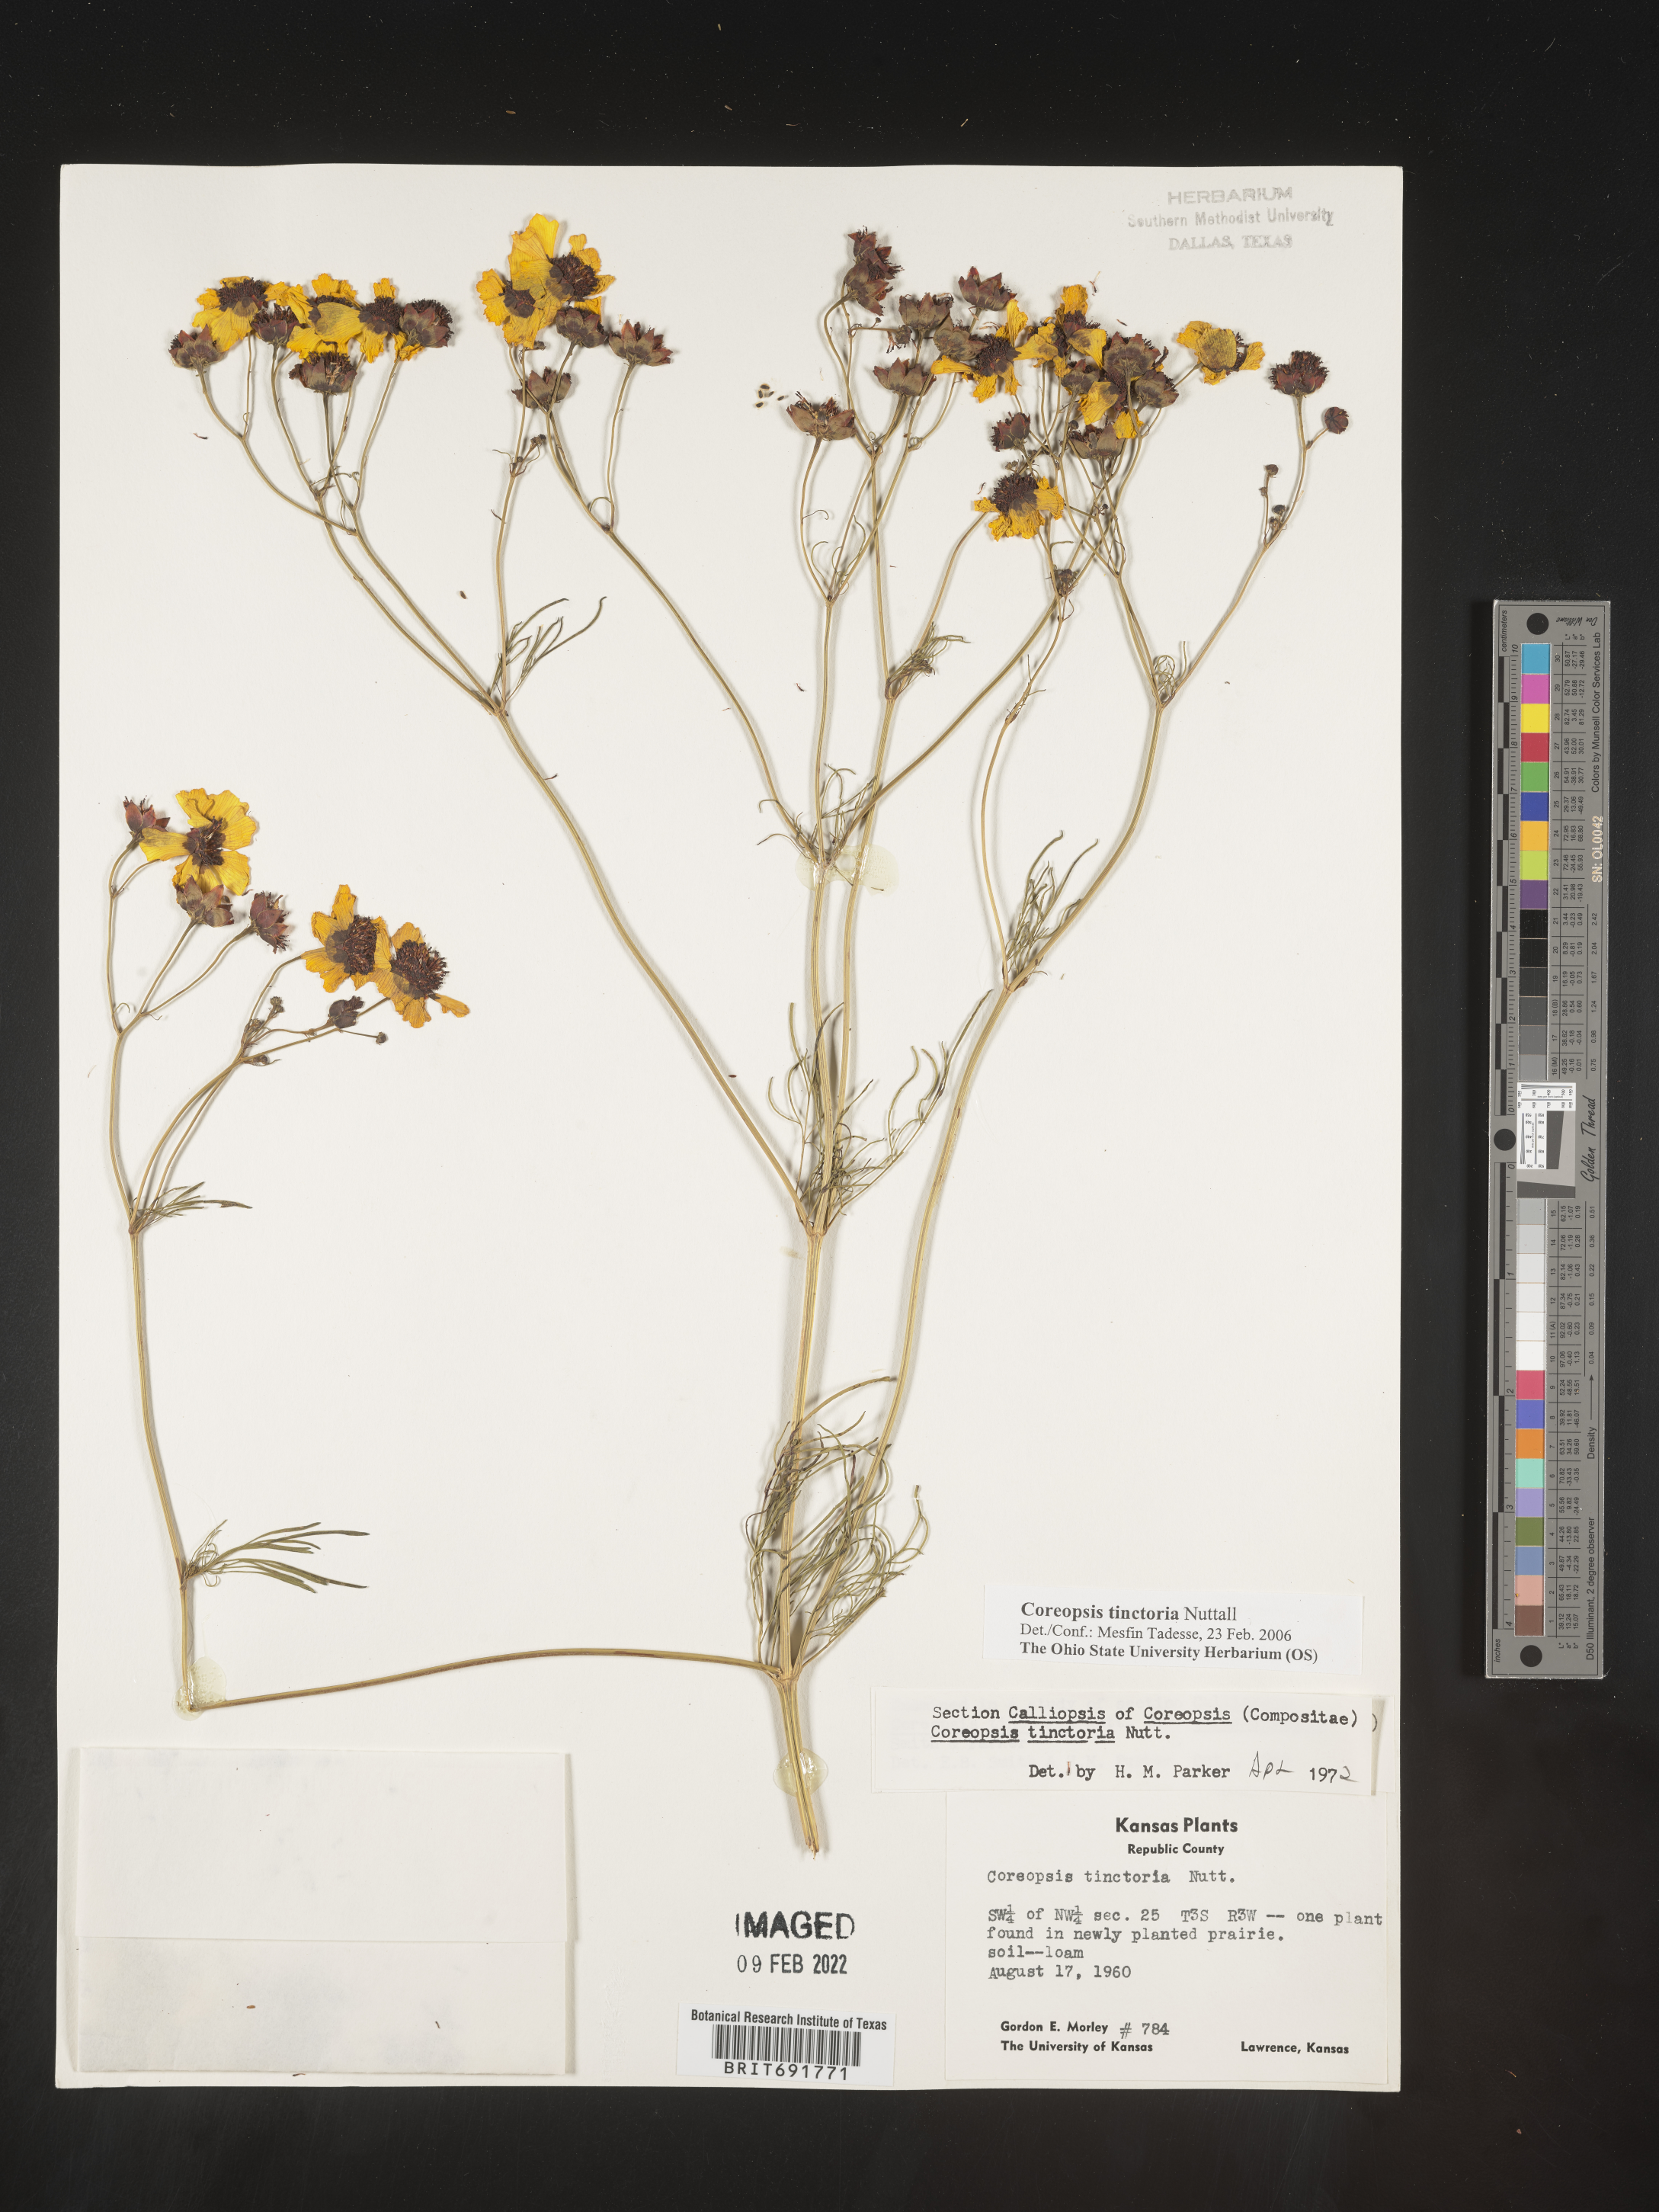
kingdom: Plantae
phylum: Tracheophyta
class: Magnoliopsida
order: Asterales
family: Asteraceae
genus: Coreopsis
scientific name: Coreopsis tinctoria
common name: Garden tickseed
